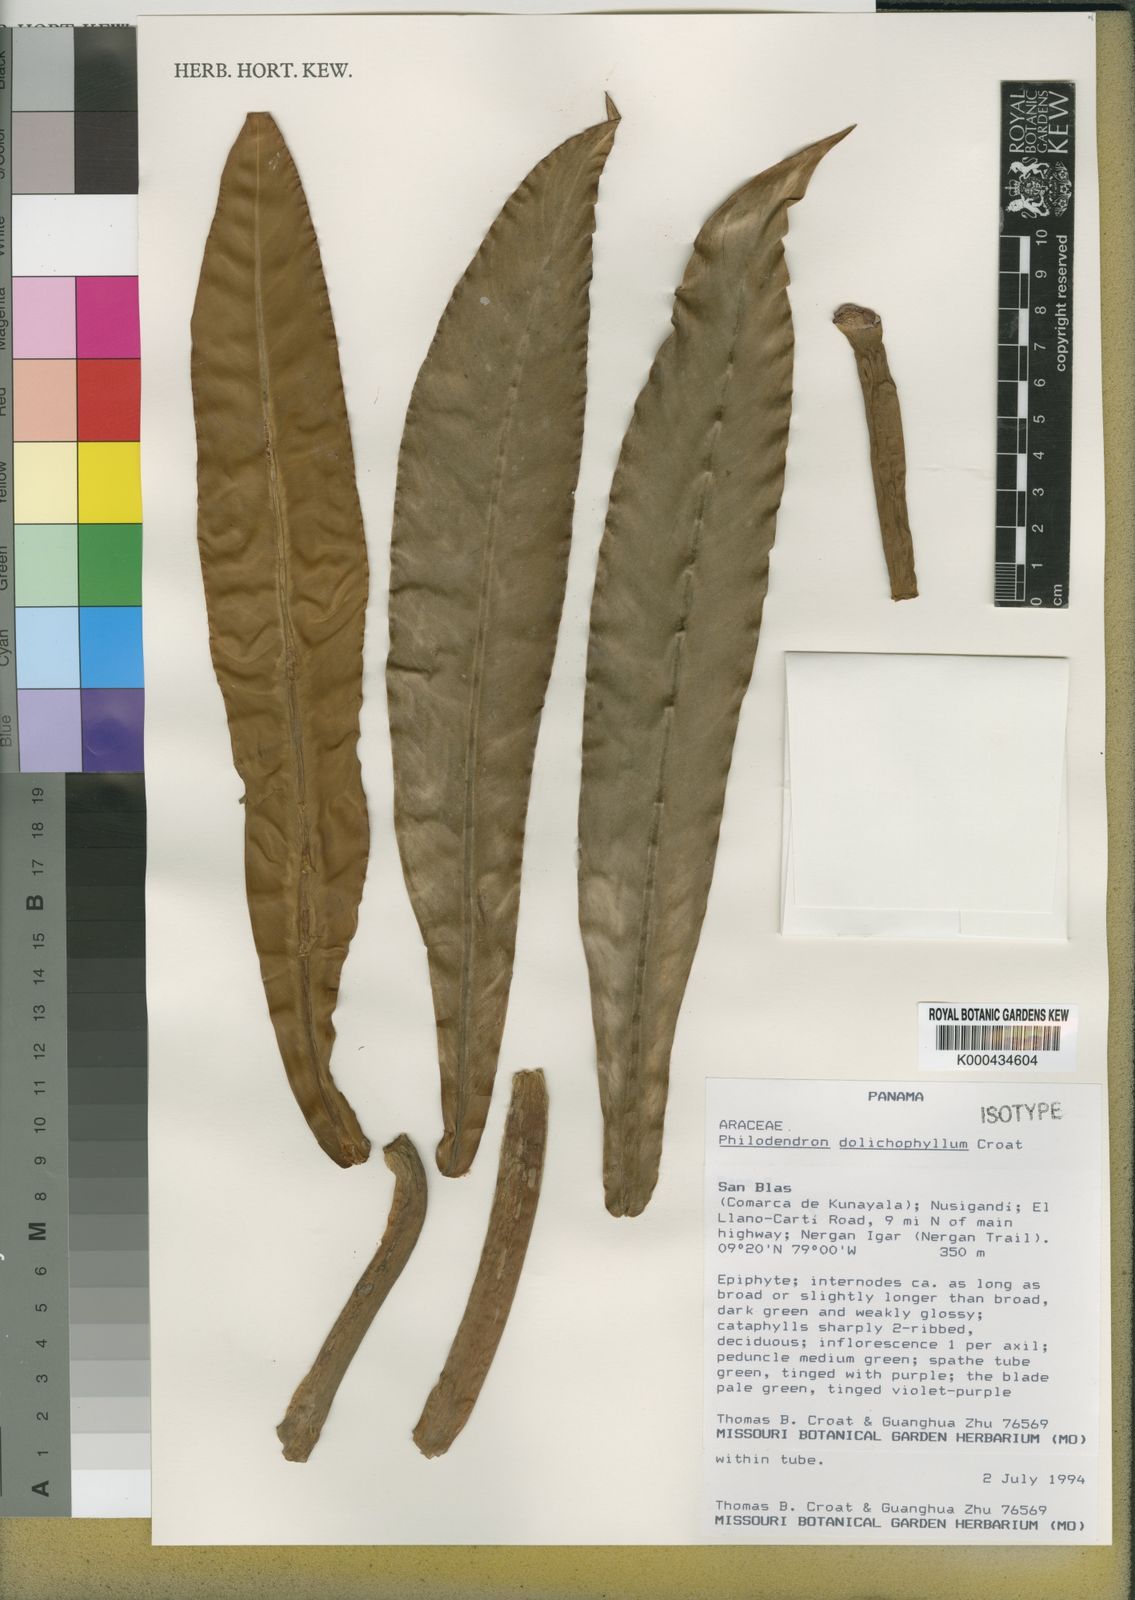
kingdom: Plantae
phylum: Tracheophyta
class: Liliopsida
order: Alismatales
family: Araceae
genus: Philodendron
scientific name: Philodendron dolichophyllum
